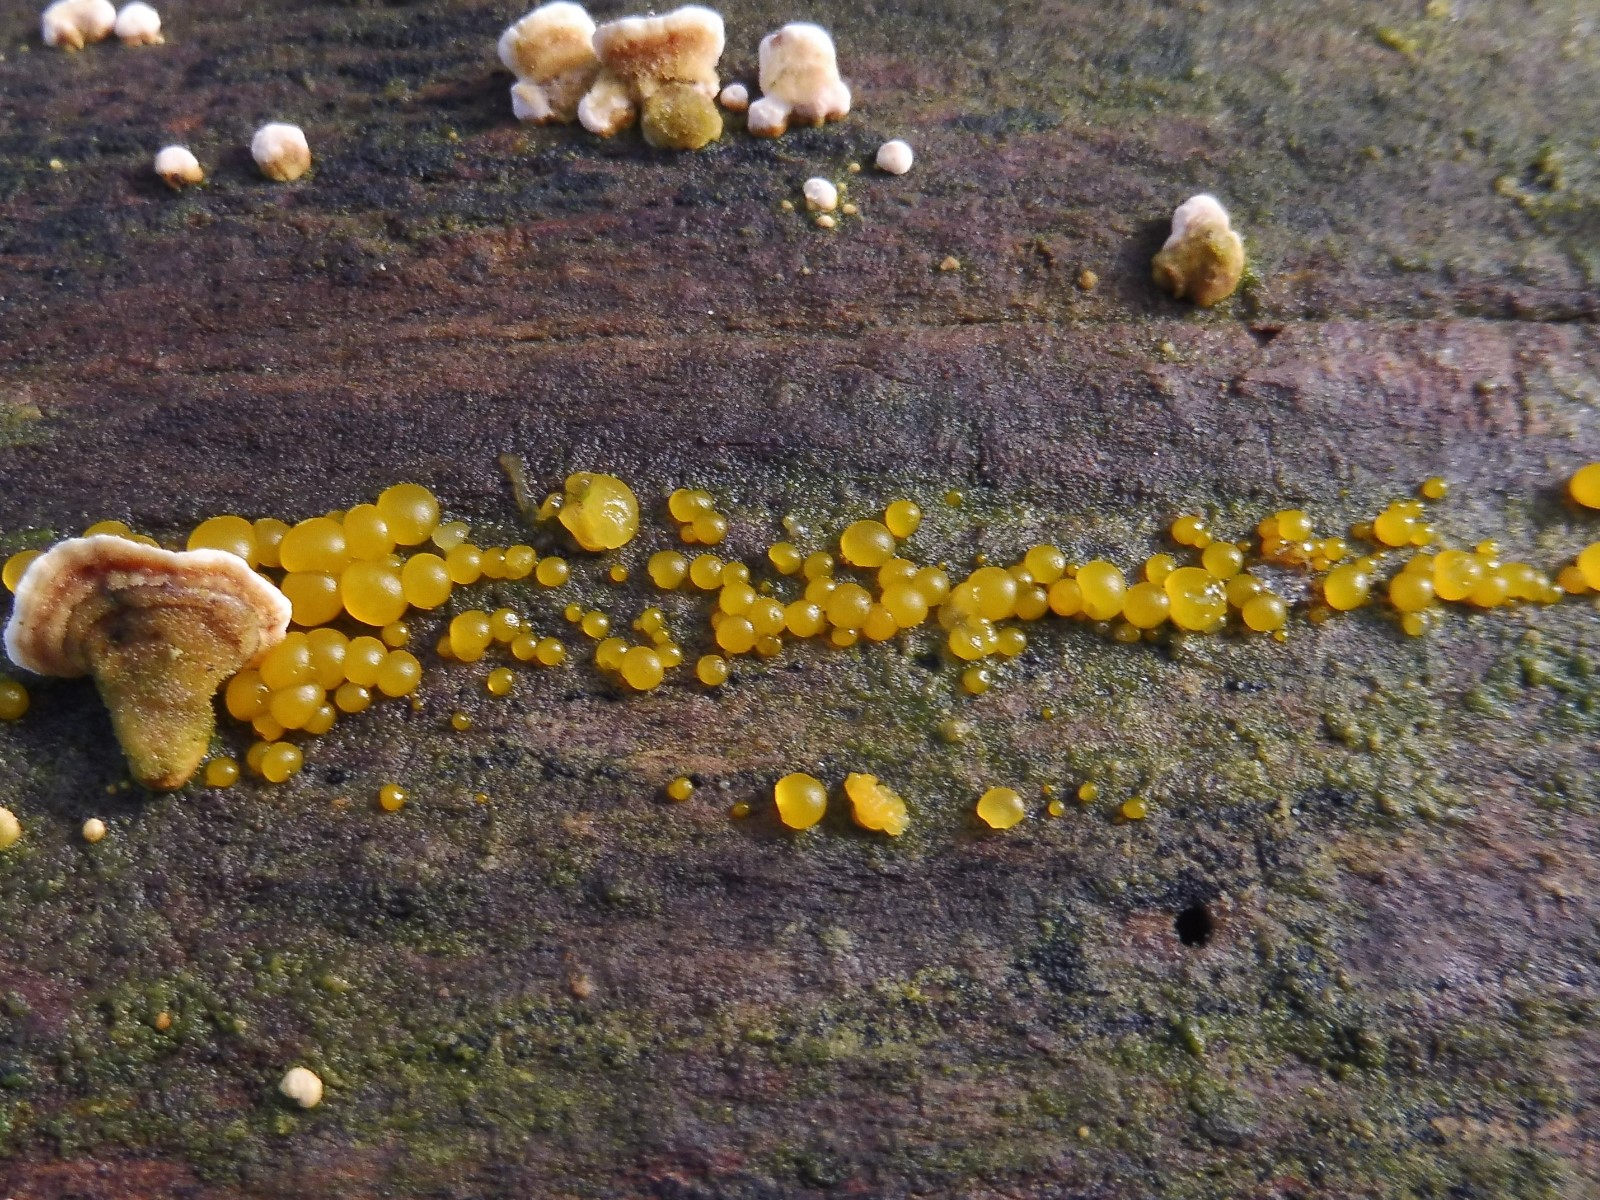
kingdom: Fungi
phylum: Basidiomycota
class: Dacrymycetes
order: Dacrymycetales
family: Dacrymycetaceae
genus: Dacrymyces
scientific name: Dacrymyces
